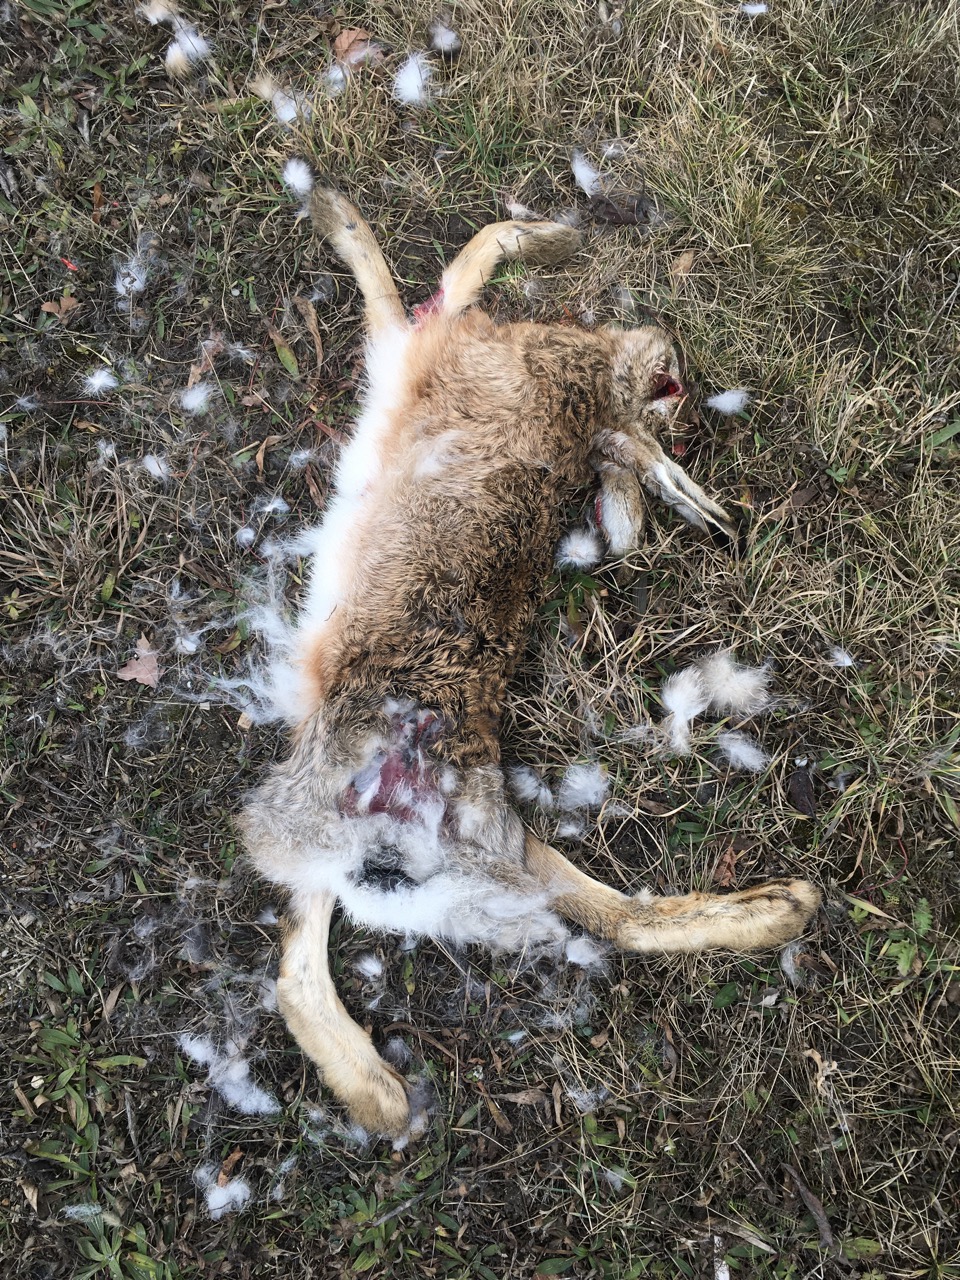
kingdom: Animalia
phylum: Chordata
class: Mammalia
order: Lagomorpha
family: Leporidae
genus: Lepus
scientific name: Lepus europaeus
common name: European hare
